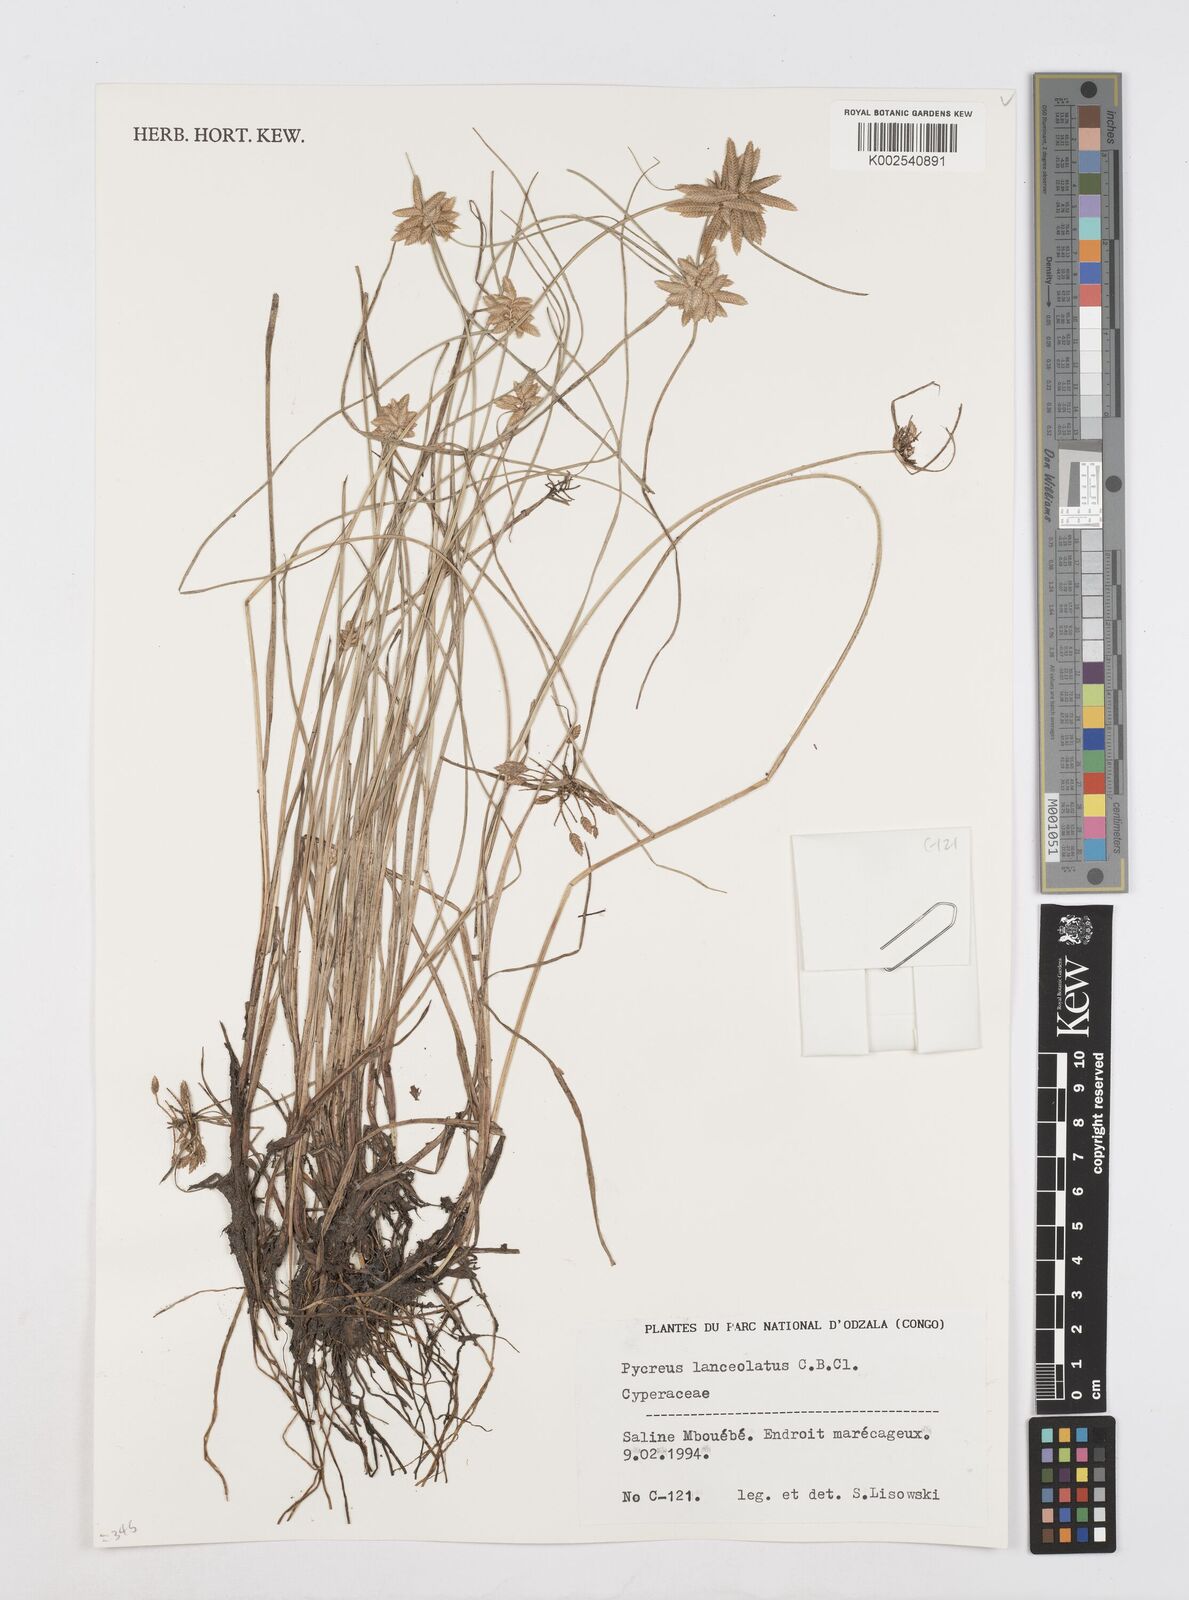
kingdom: Plantae
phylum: Tracheophyta
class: Liliopsida
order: Poales
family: Cyperaceae
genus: Cyperus
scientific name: Cyperus flavescens
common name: Yellow galingale
